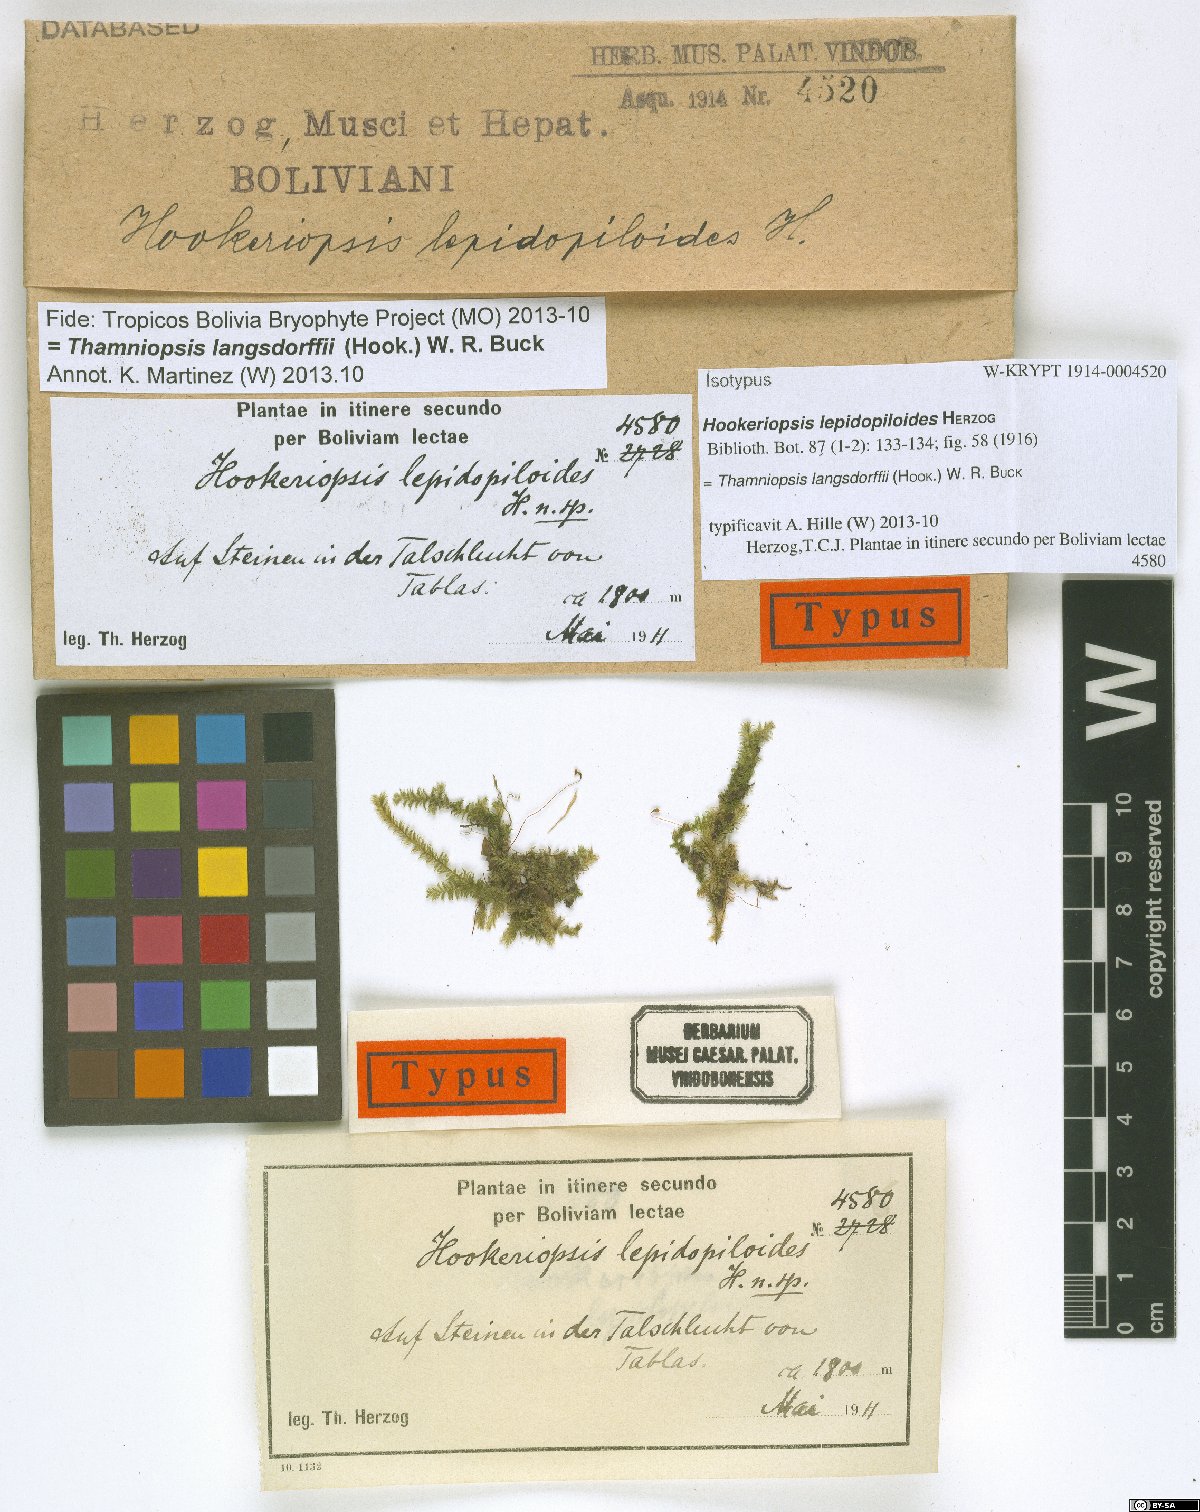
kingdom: Plantae
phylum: Bryophyta
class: Bryopsida
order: Hookeriales
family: Pilotrichaceae
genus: Thamniopsis
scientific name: Thamniopsis langsdorffii
